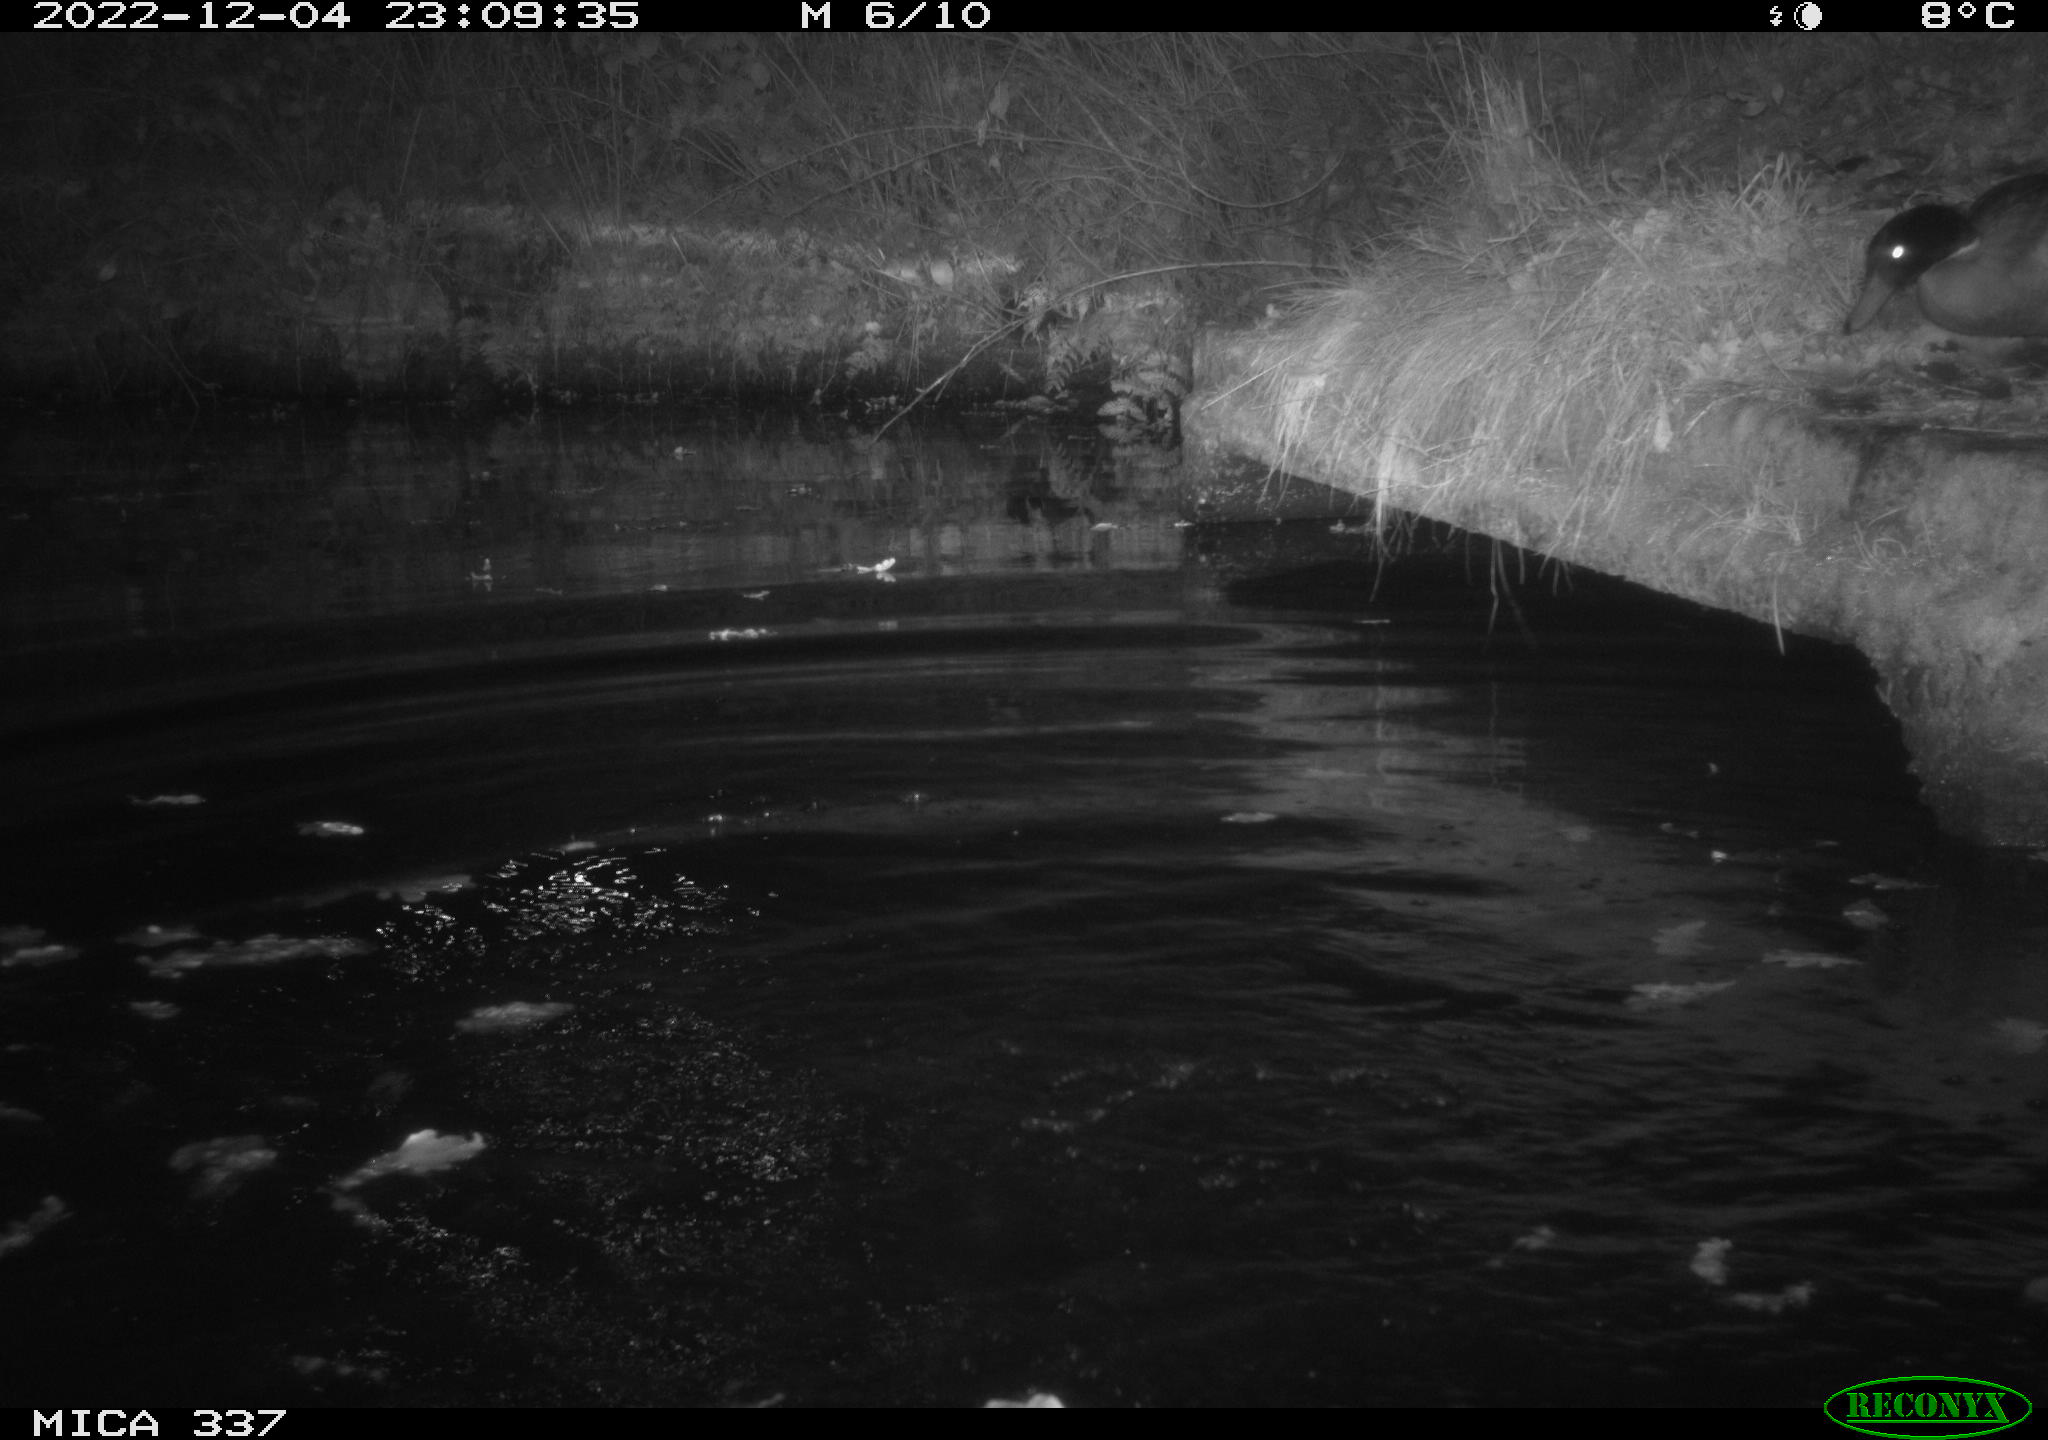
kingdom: Animalia
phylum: Chordata
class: Aves
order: Anseriformes
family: Anatidae
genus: Anas
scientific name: Anas platyrhynchos
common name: Mallard
